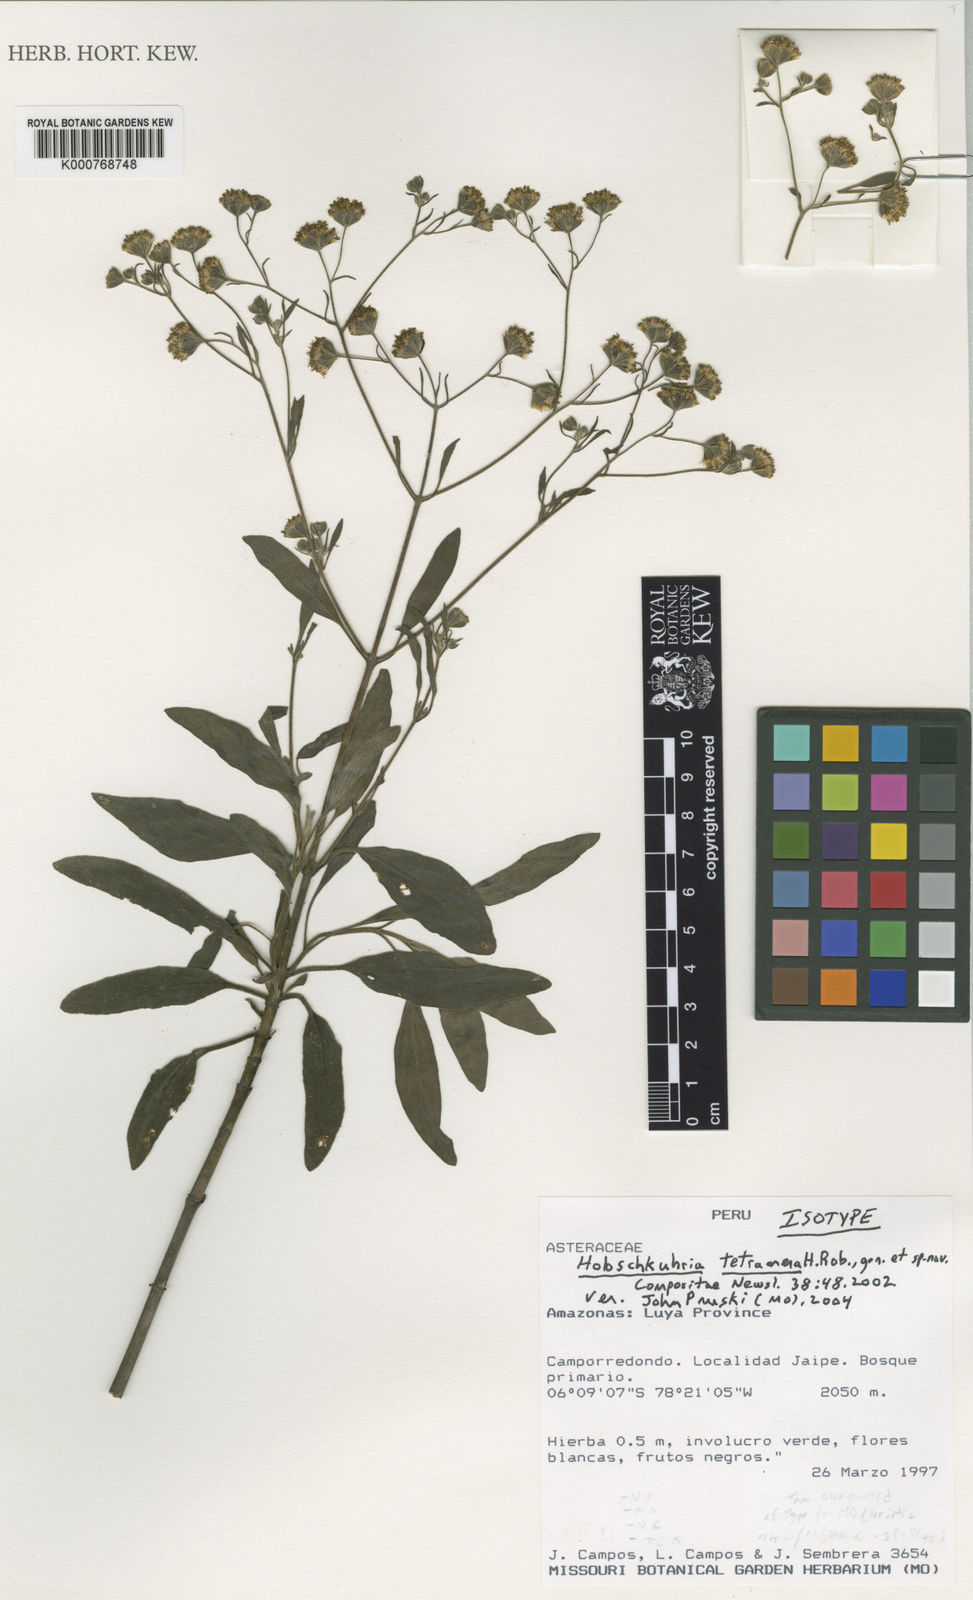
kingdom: Plantae
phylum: Tracheophyta
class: Magnoliopsida
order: Asterales
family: Asteraceae
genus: Holoschkuhria
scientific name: Holoschkuhria tetramera
